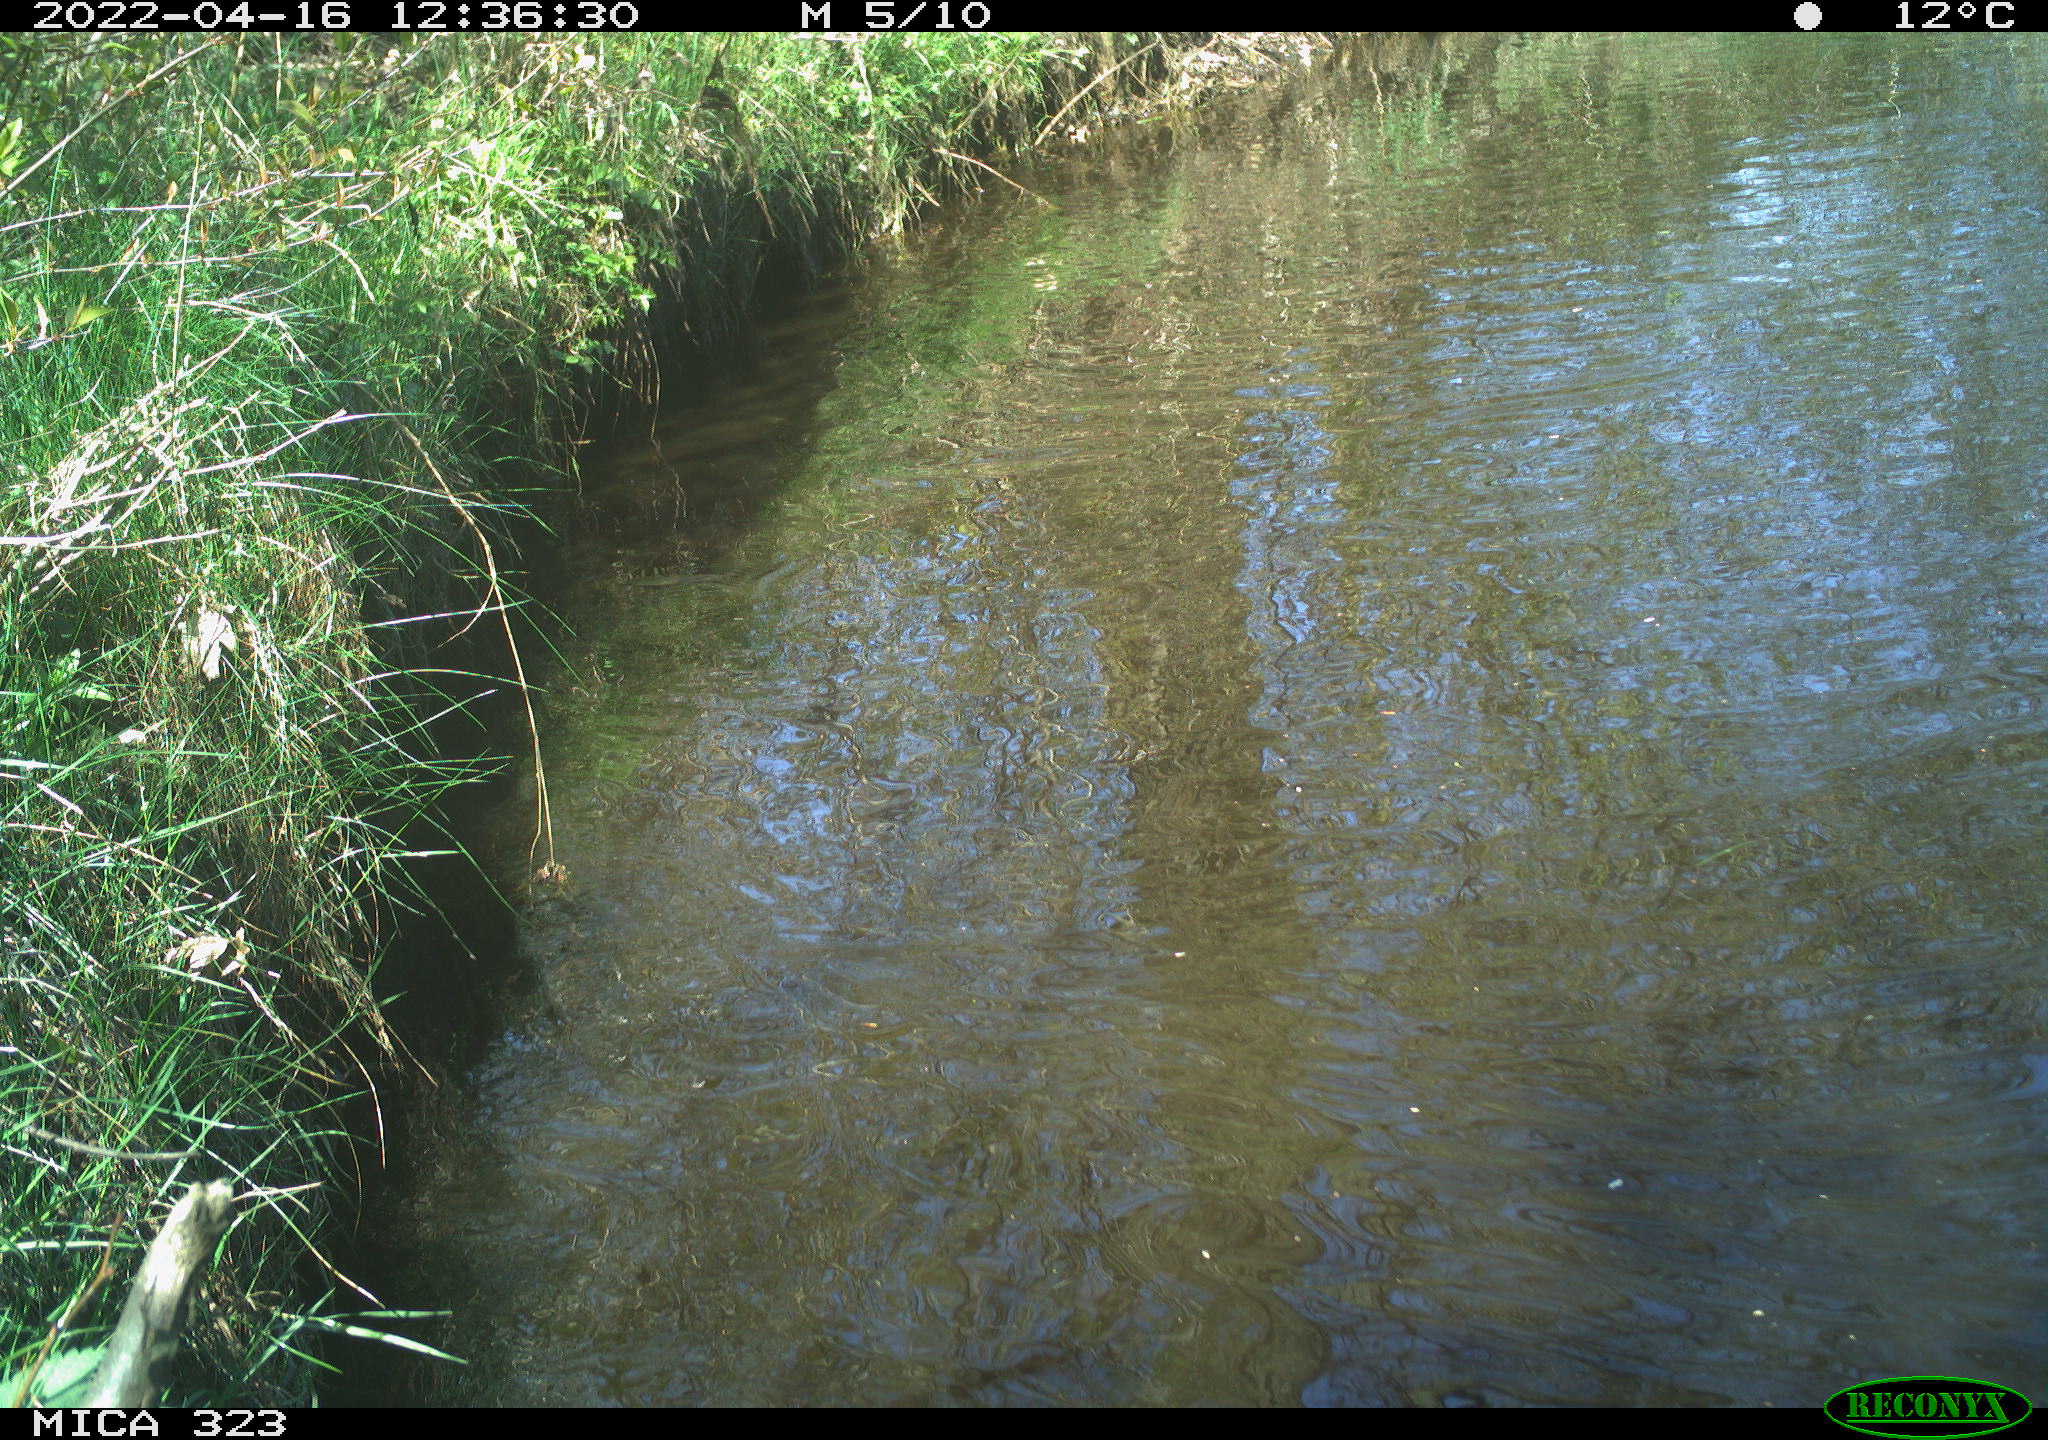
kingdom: Animalia
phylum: Chordata
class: Aves
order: Anseriformes
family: Anatidae
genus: Anas
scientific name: Anas
